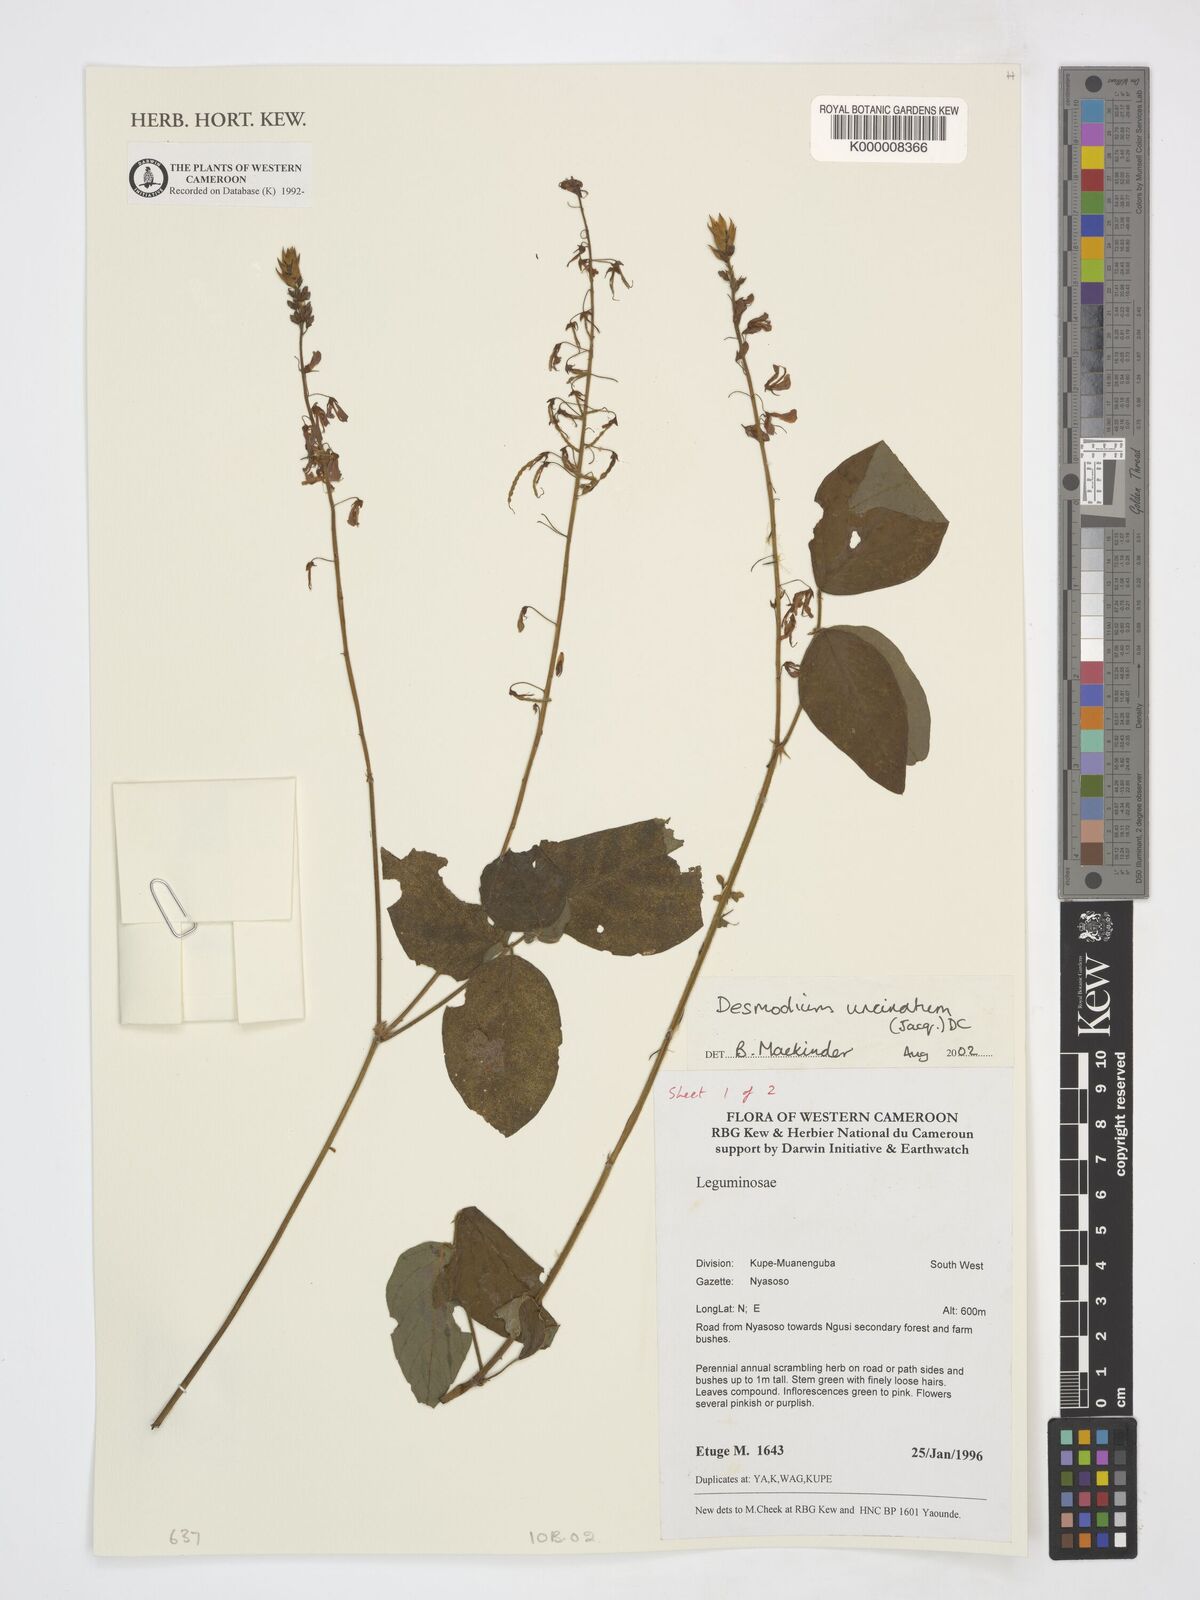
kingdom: Plantae
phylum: Tracheophyta
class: Magnoliopsida
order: Fabales
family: Fabaceae
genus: Desmodium
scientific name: Desmodium uncinatum
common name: Silverleaf desmodium
